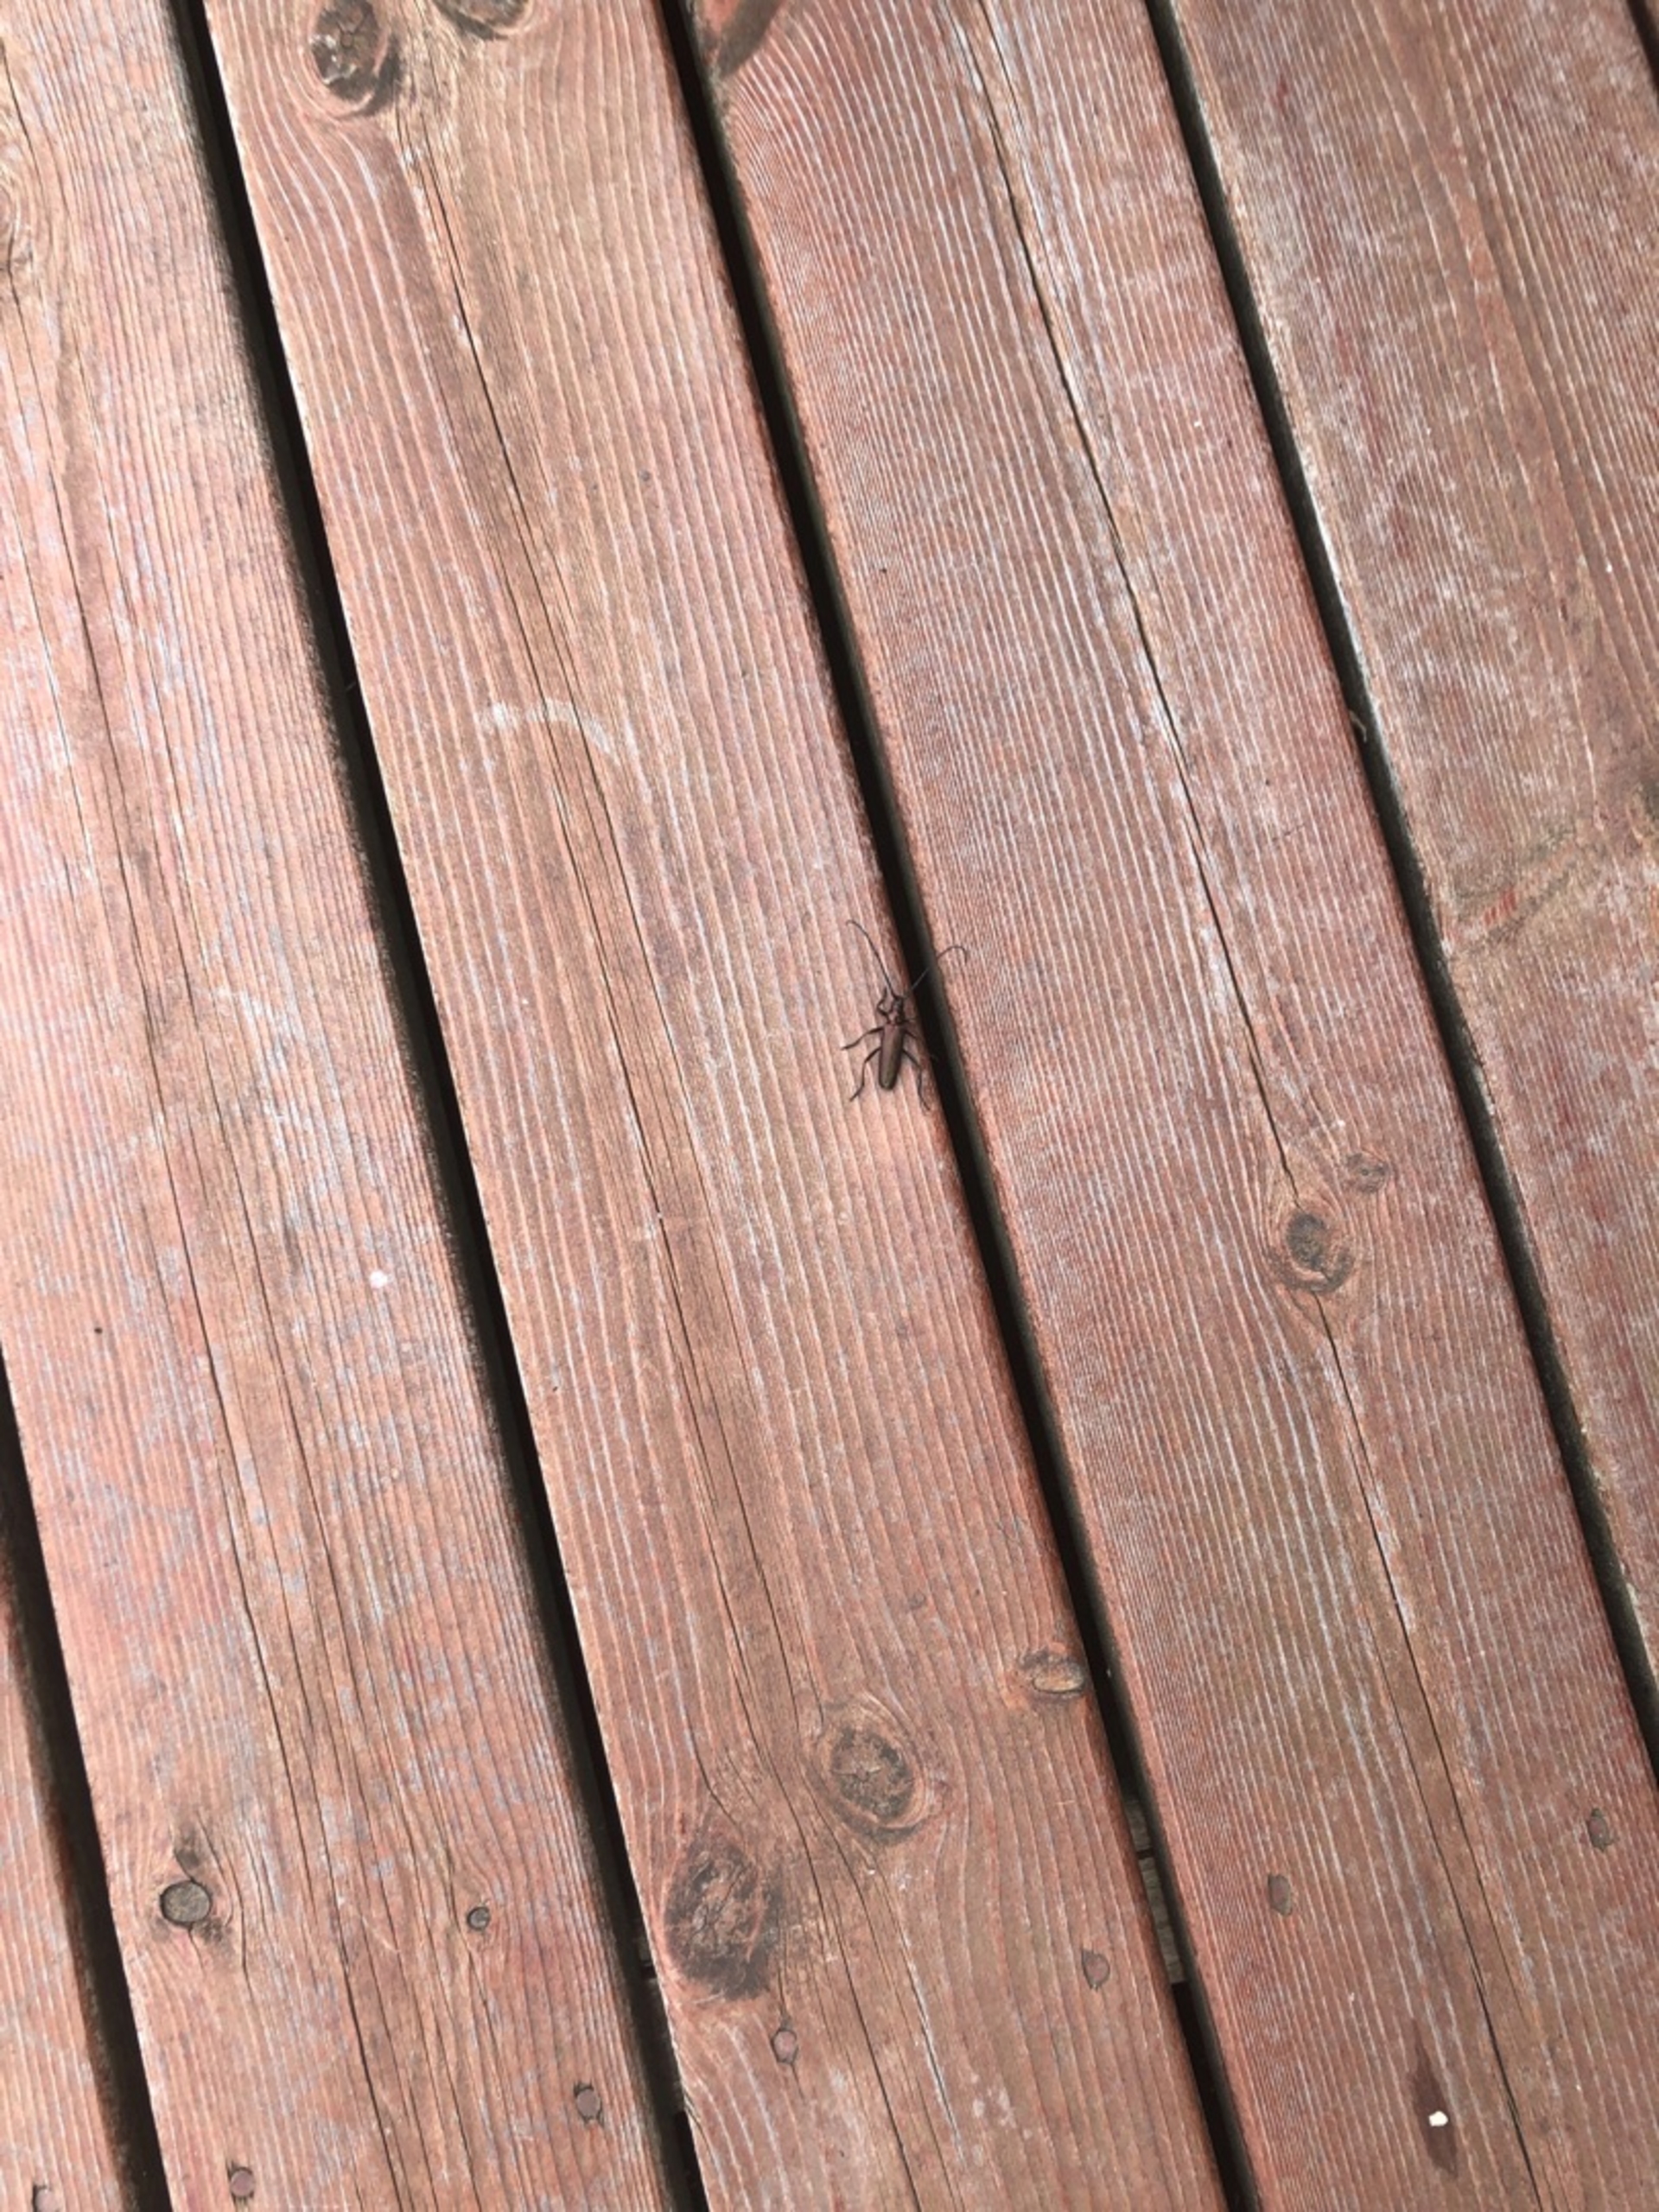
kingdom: Animalia
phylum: Arthropoda
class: Insecta
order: Coleoptera
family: Cerambycidae
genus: Aromia
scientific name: Aromia moschata
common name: Moskusbuk
